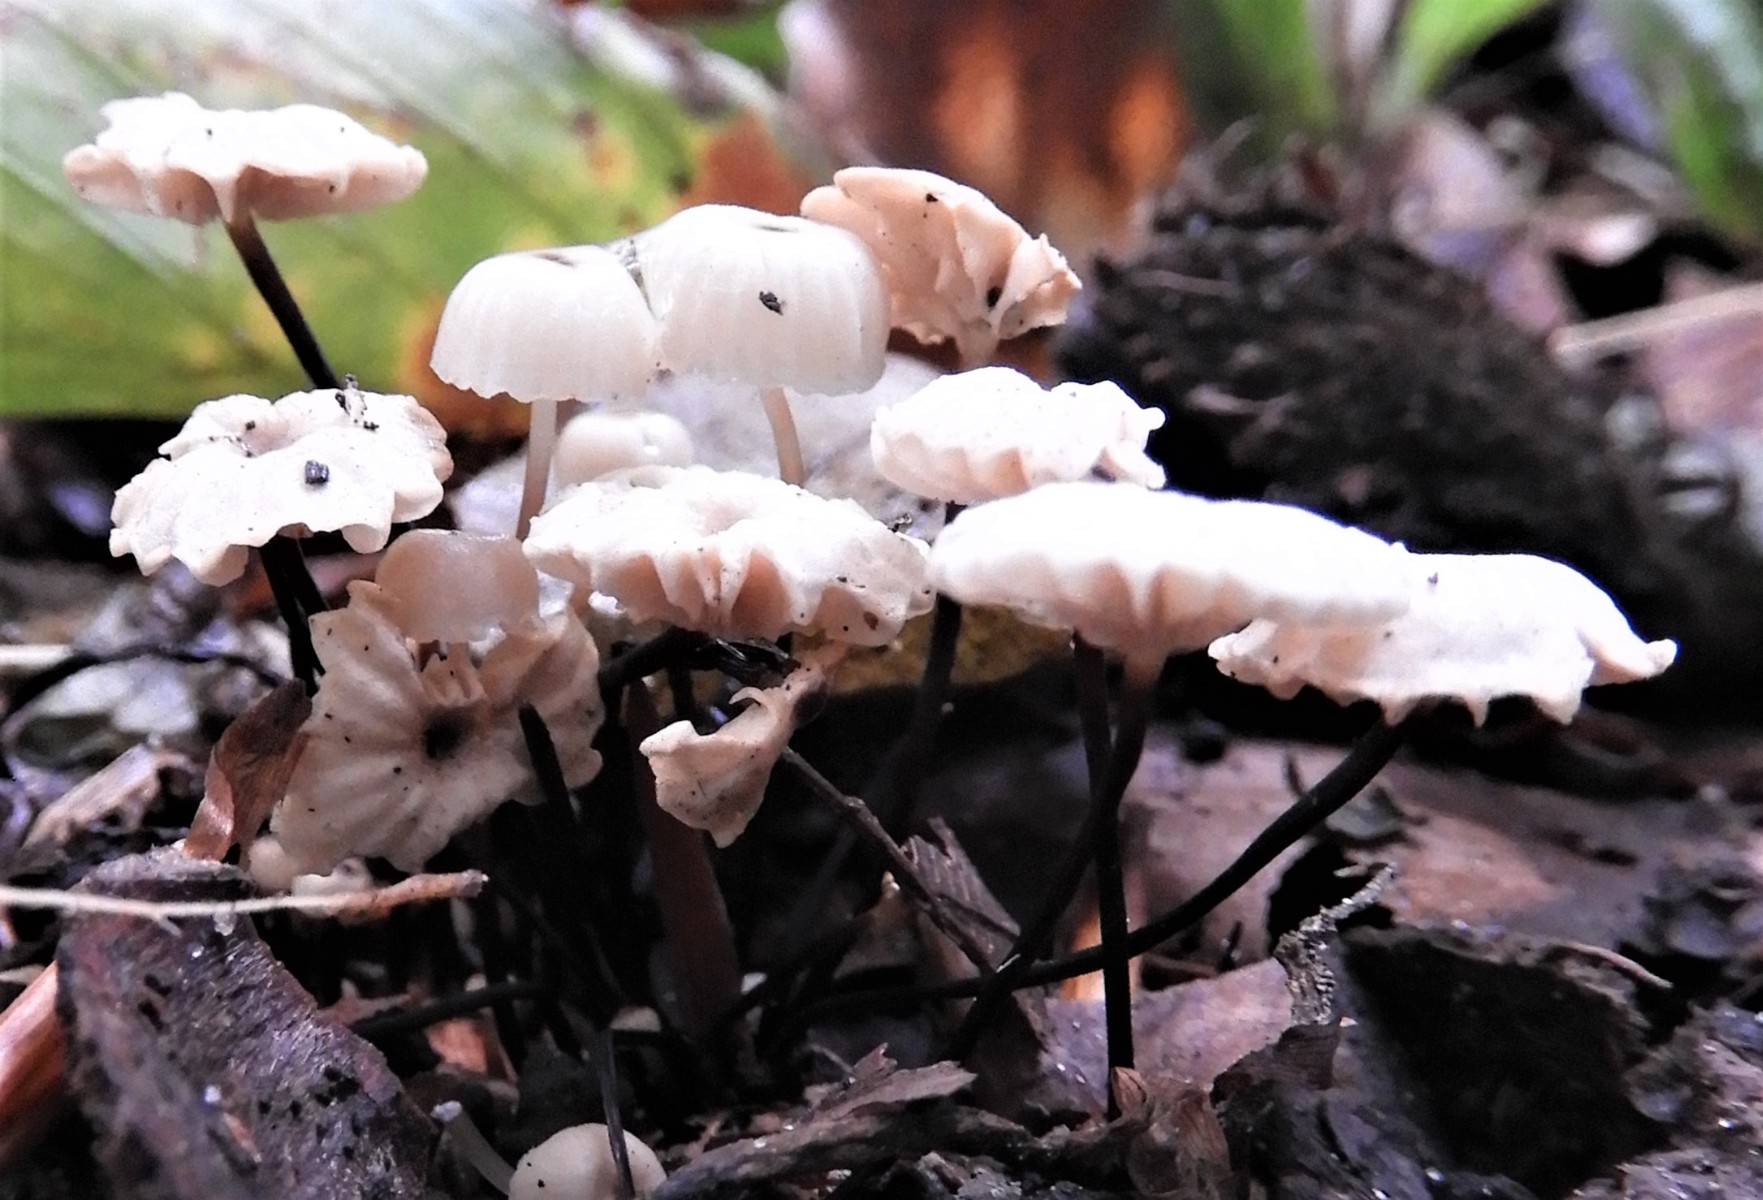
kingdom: Fungi
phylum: Basidiomycota
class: Agaricomycetes
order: Agaricales
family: Marasmiaceae
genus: Marasmius
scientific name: Marasmius rotula
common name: hjul-bruskhat
